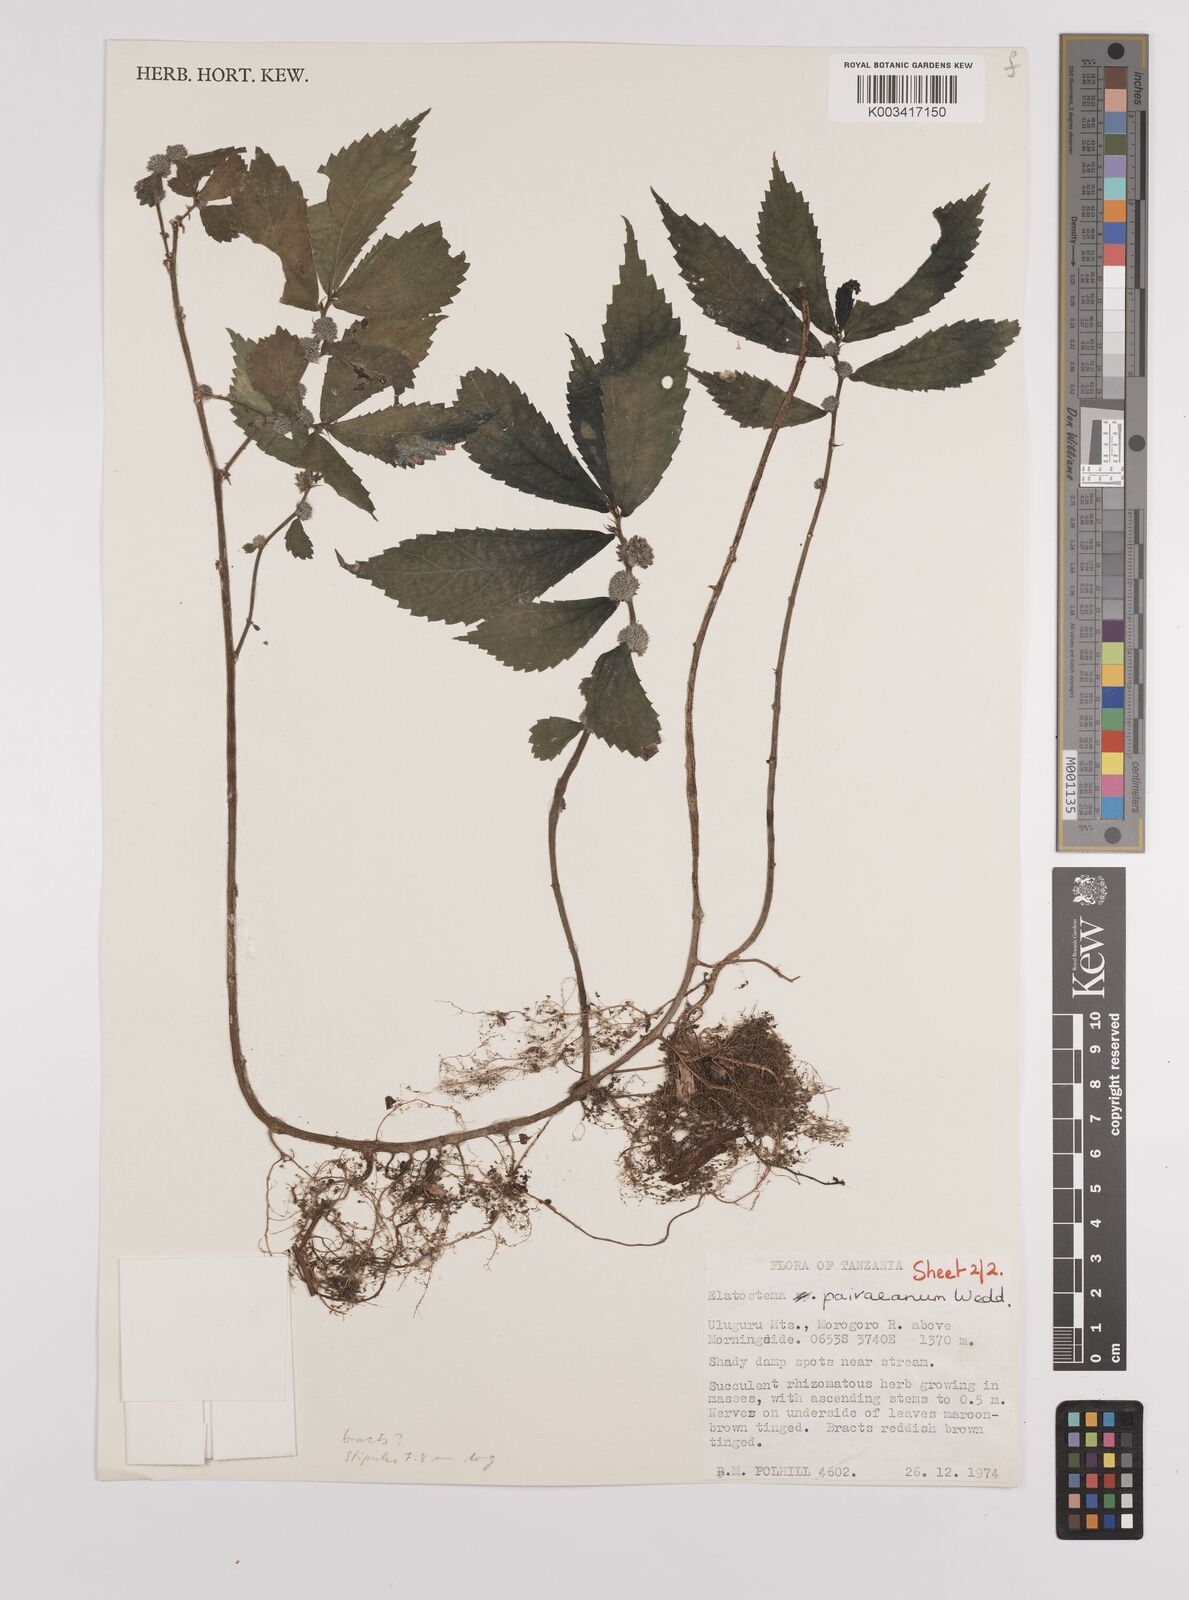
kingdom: Plantae
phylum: Tracheophyta
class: Magnoliopsida
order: Rosales
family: Urticaceae
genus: Elatostema
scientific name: Elatostema paivaeanum
